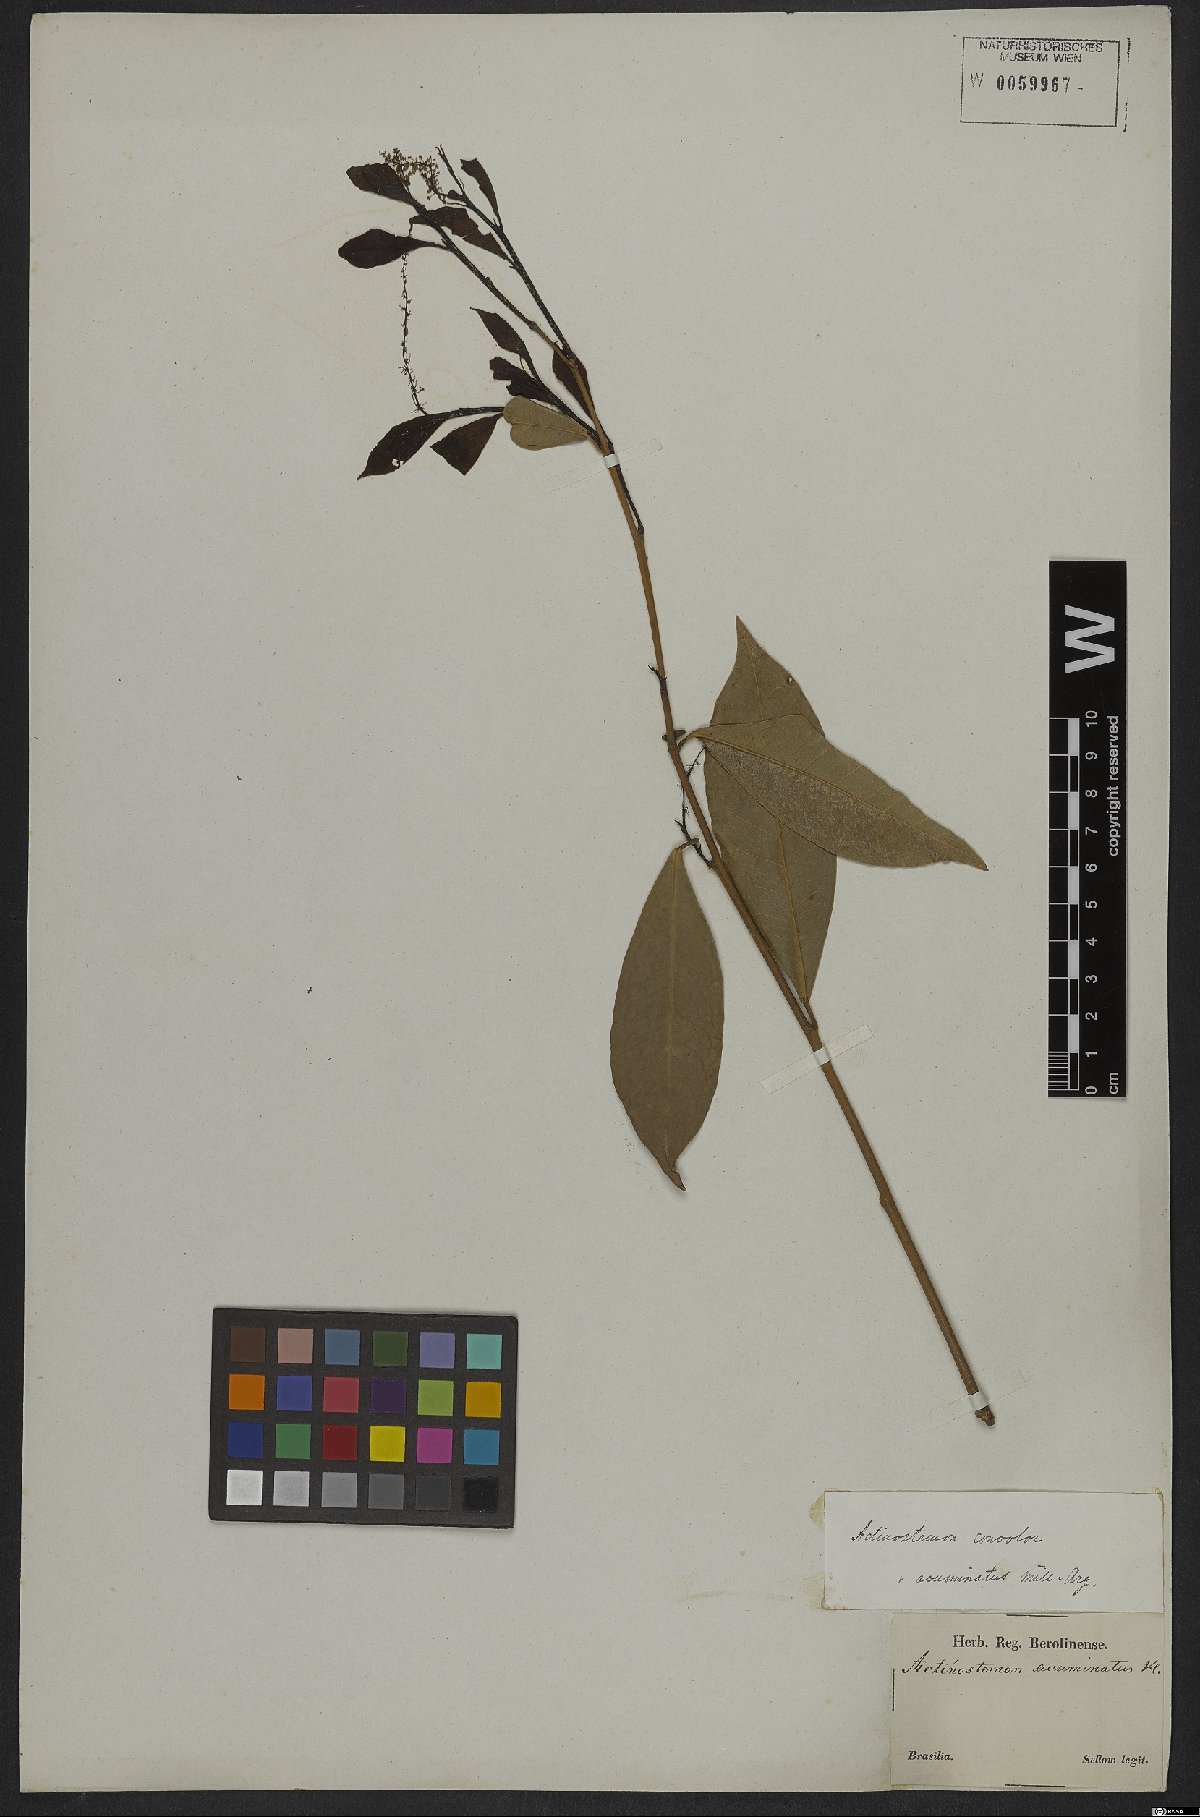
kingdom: Plantae
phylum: Tracheophyta
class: Magnoliopsida
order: Malpighiales
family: Euphorbiaceae
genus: Actinostemon
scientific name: Actinostemon concolor
